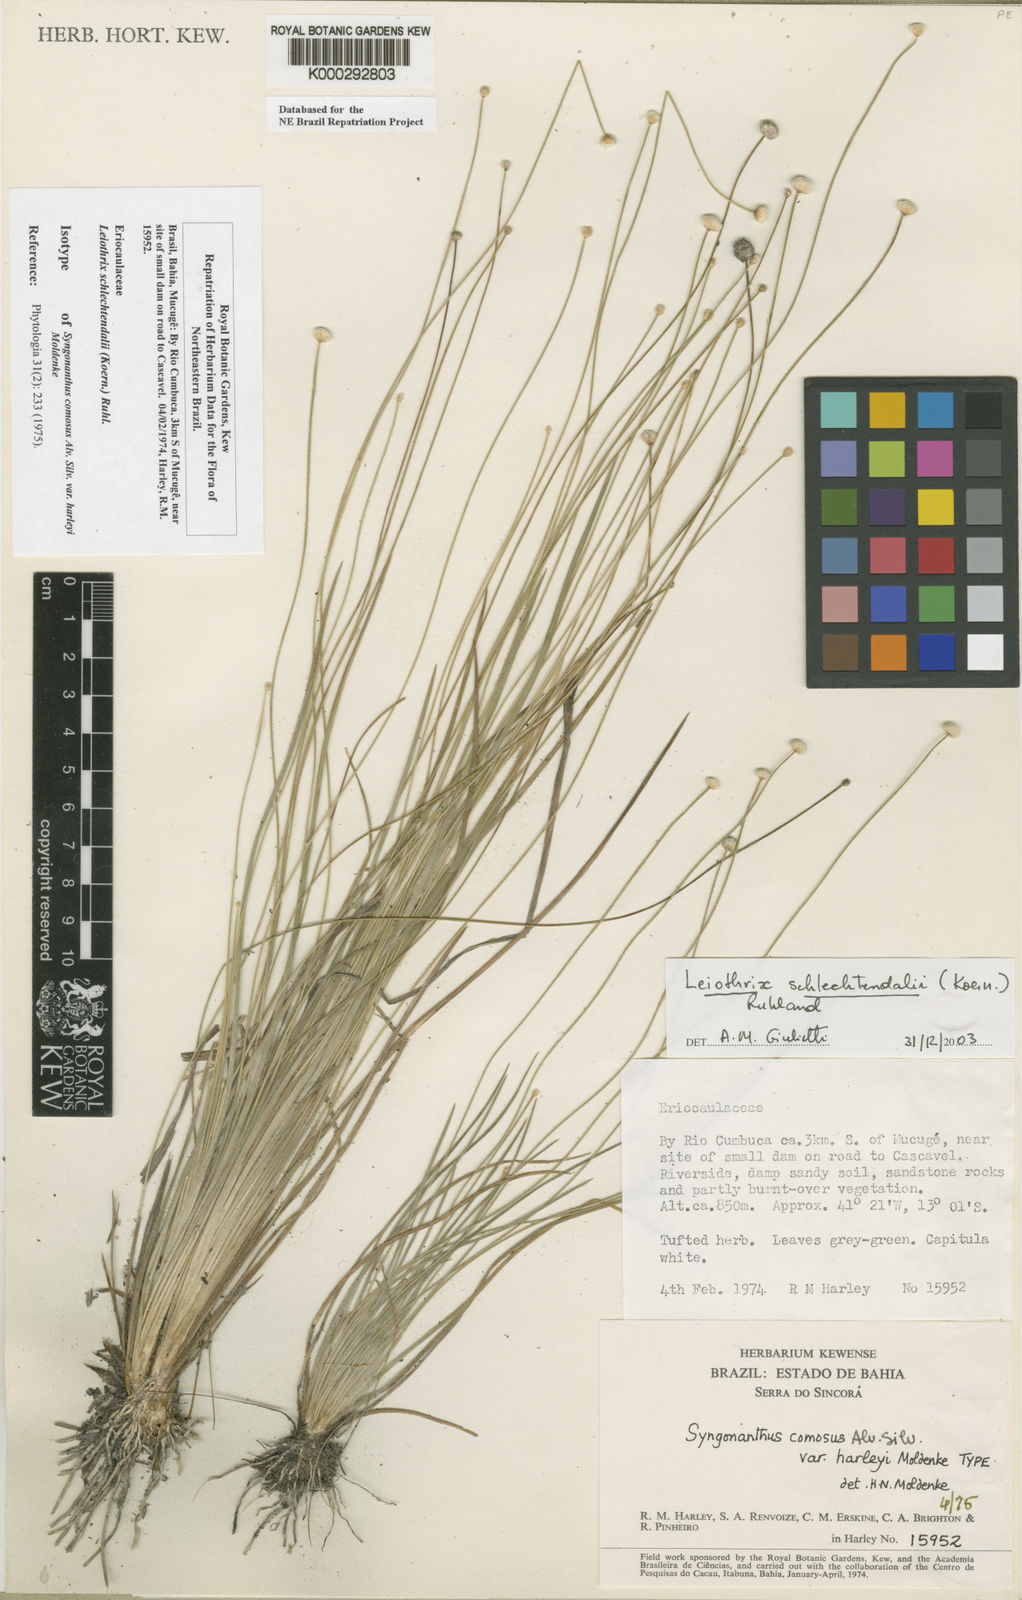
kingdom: Plantae
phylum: Tracheophyta
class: Liliopsida
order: Poales
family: Eriocaulaceae
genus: Leiothrix
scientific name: Leiothrix schlechtendalii
